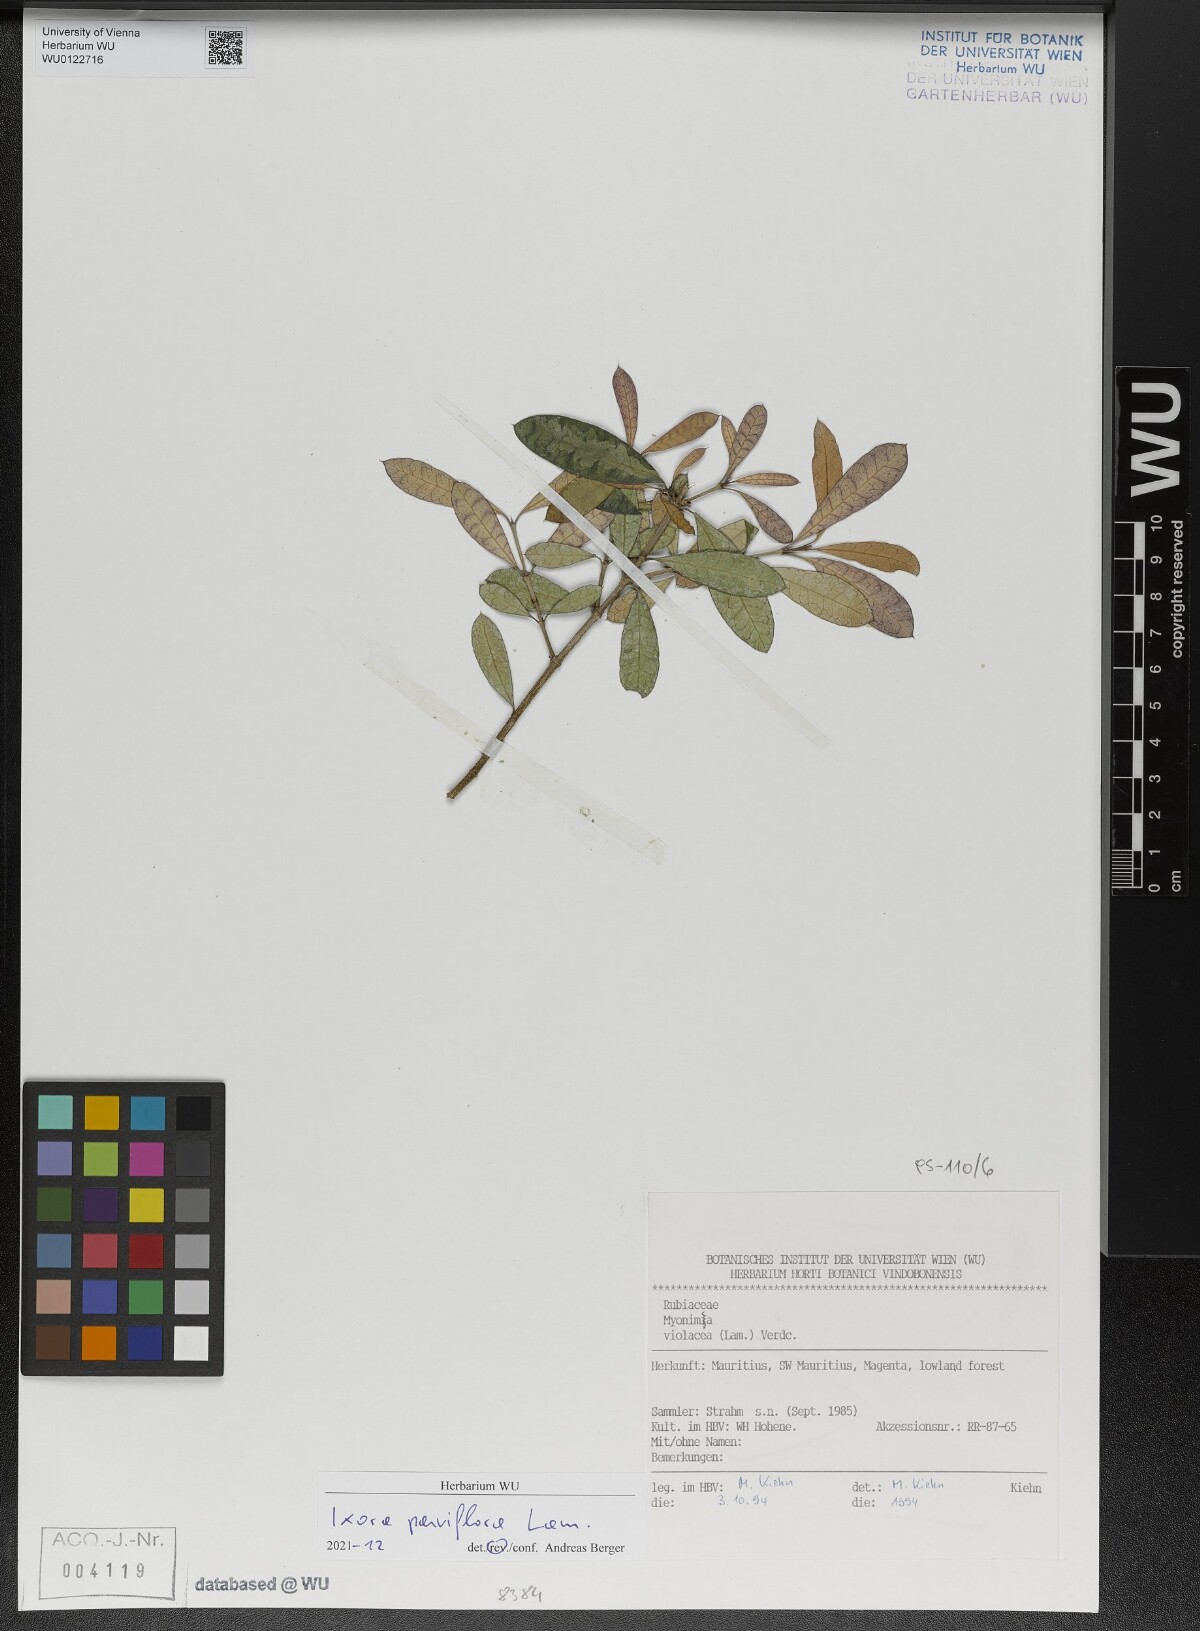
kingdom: Plantae
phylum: Tracheophyta
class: Magnoliopsida
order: Gentianales
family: Rubiaceae
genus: Ixora
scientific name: Ixora parviflora
